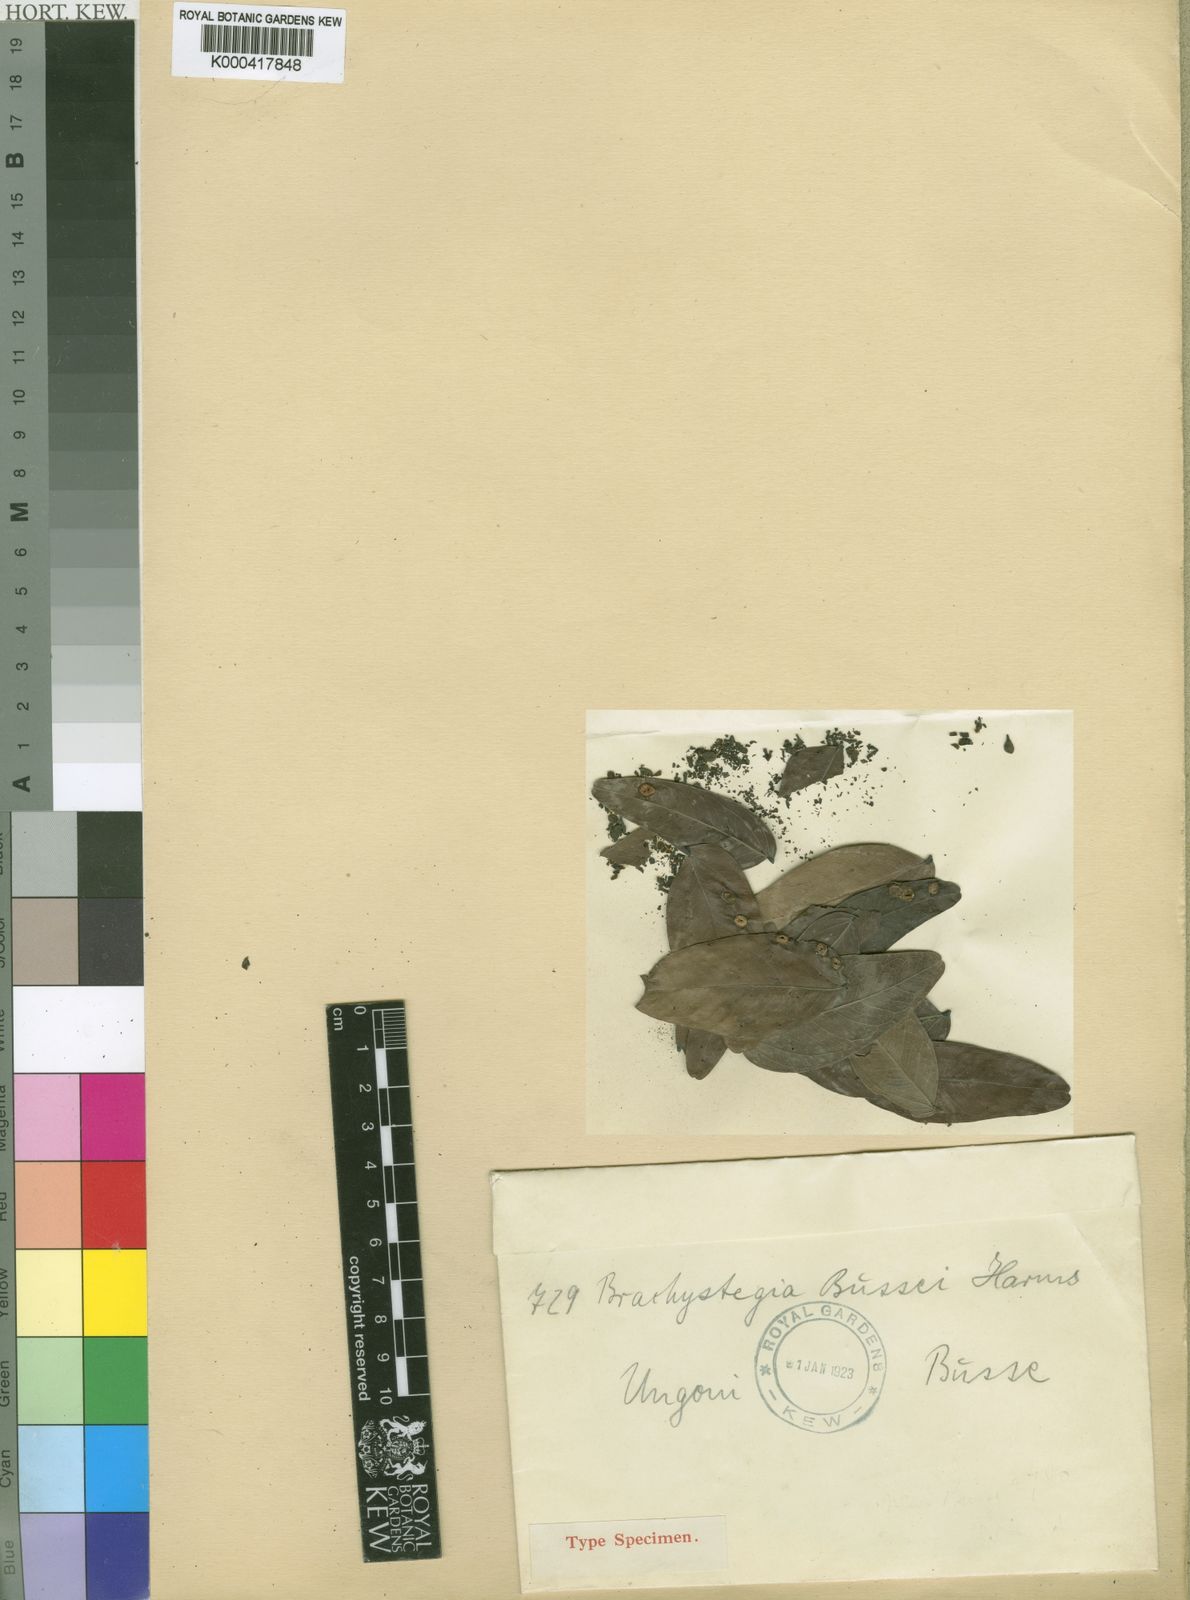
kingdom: Plantae
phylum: Tracheophyta
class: Magnoliopsida
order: Fabales
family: Fabaceae
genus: Brachystegia
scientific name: Brachystegia bussei
